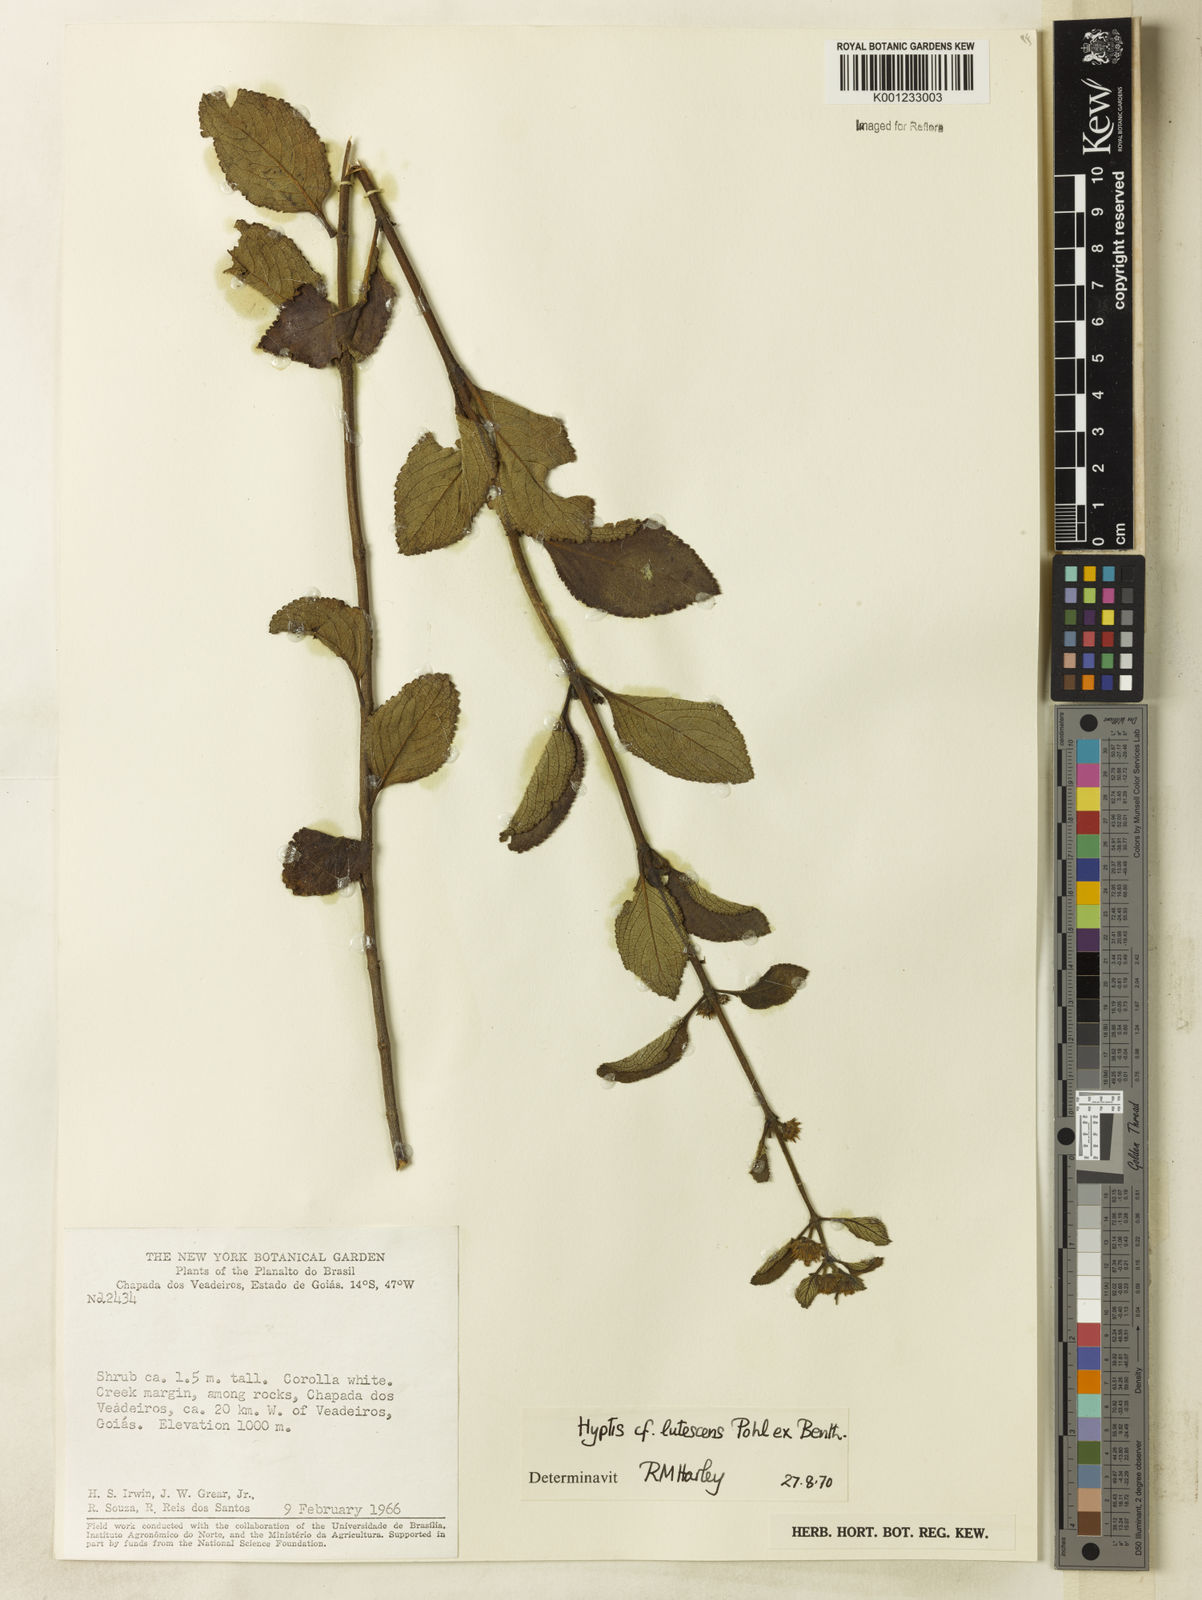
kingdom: Plantae
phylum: Tracheophyta
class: Magnoliopsida
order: Lamiales
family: Lamiaceae
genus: Hyptis
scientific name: Hyptis lutescens
